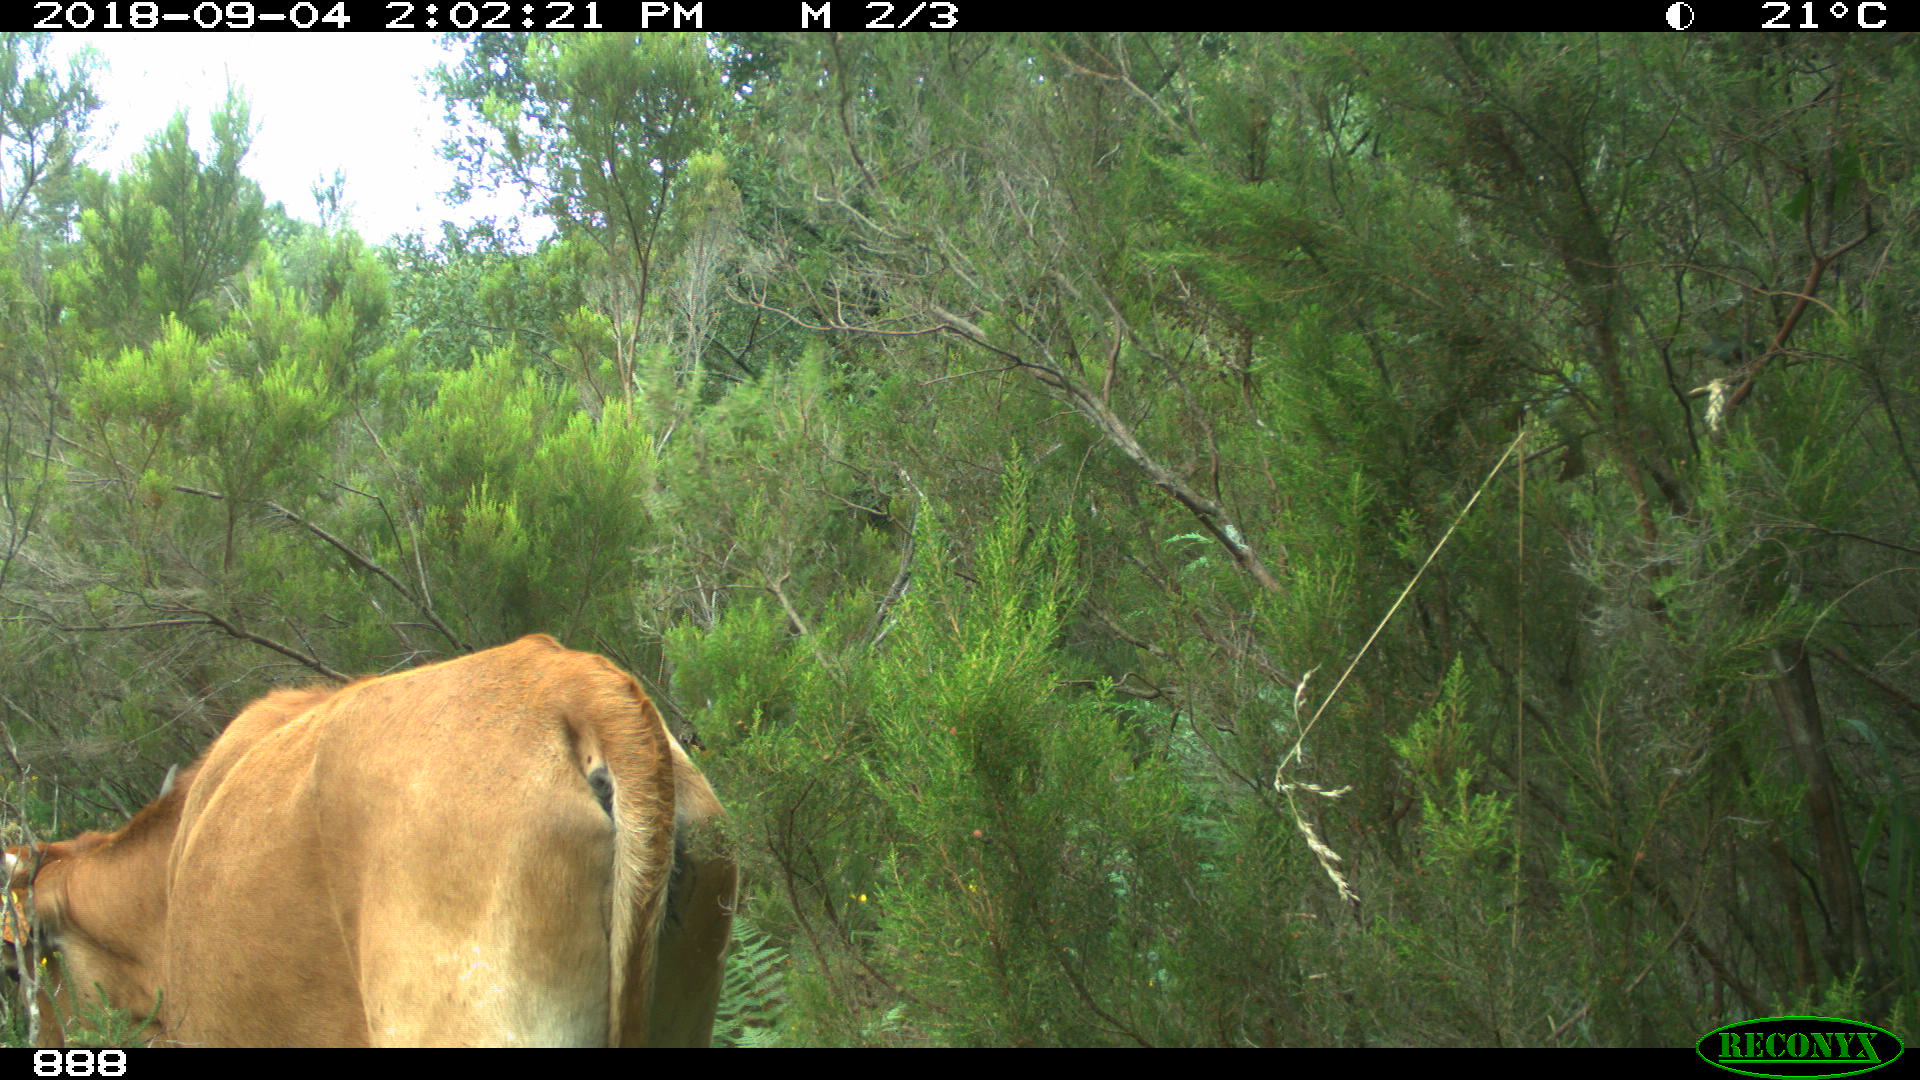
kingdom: Animalia
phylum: Chordata
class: Mammalia
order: Artiodactyla
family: Bovidae
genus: Bos
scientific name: Bos taurus
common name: Domesticated cattle
